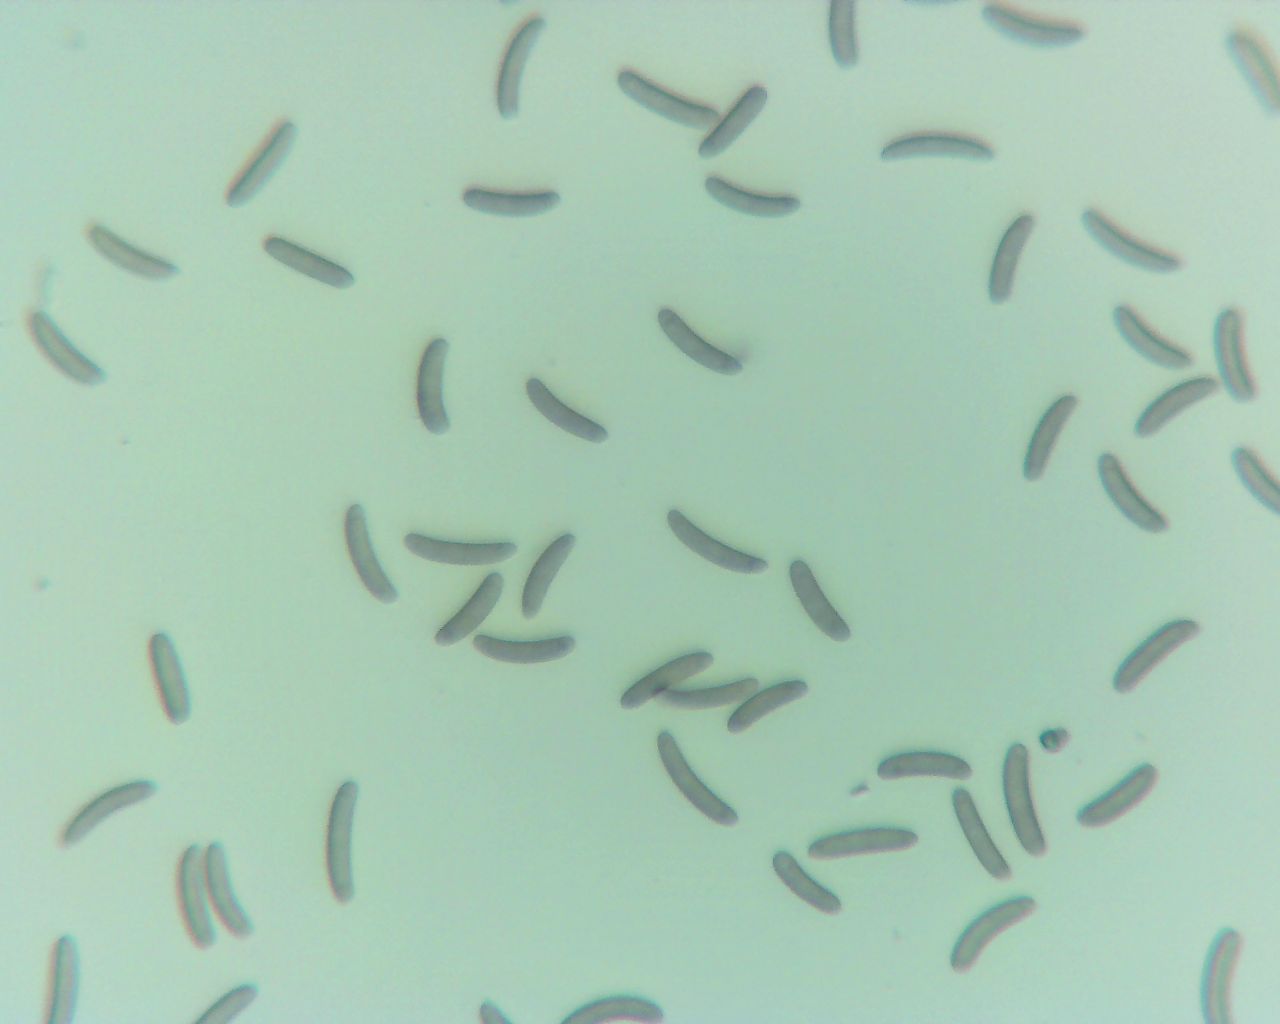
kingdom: Fungi
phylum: Ascomycota
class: Sordariomycetes
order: Xylariales
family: Diatrypaceae
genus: Eutypella
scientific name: Eutypella quaternata
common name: bøge-korsprik
